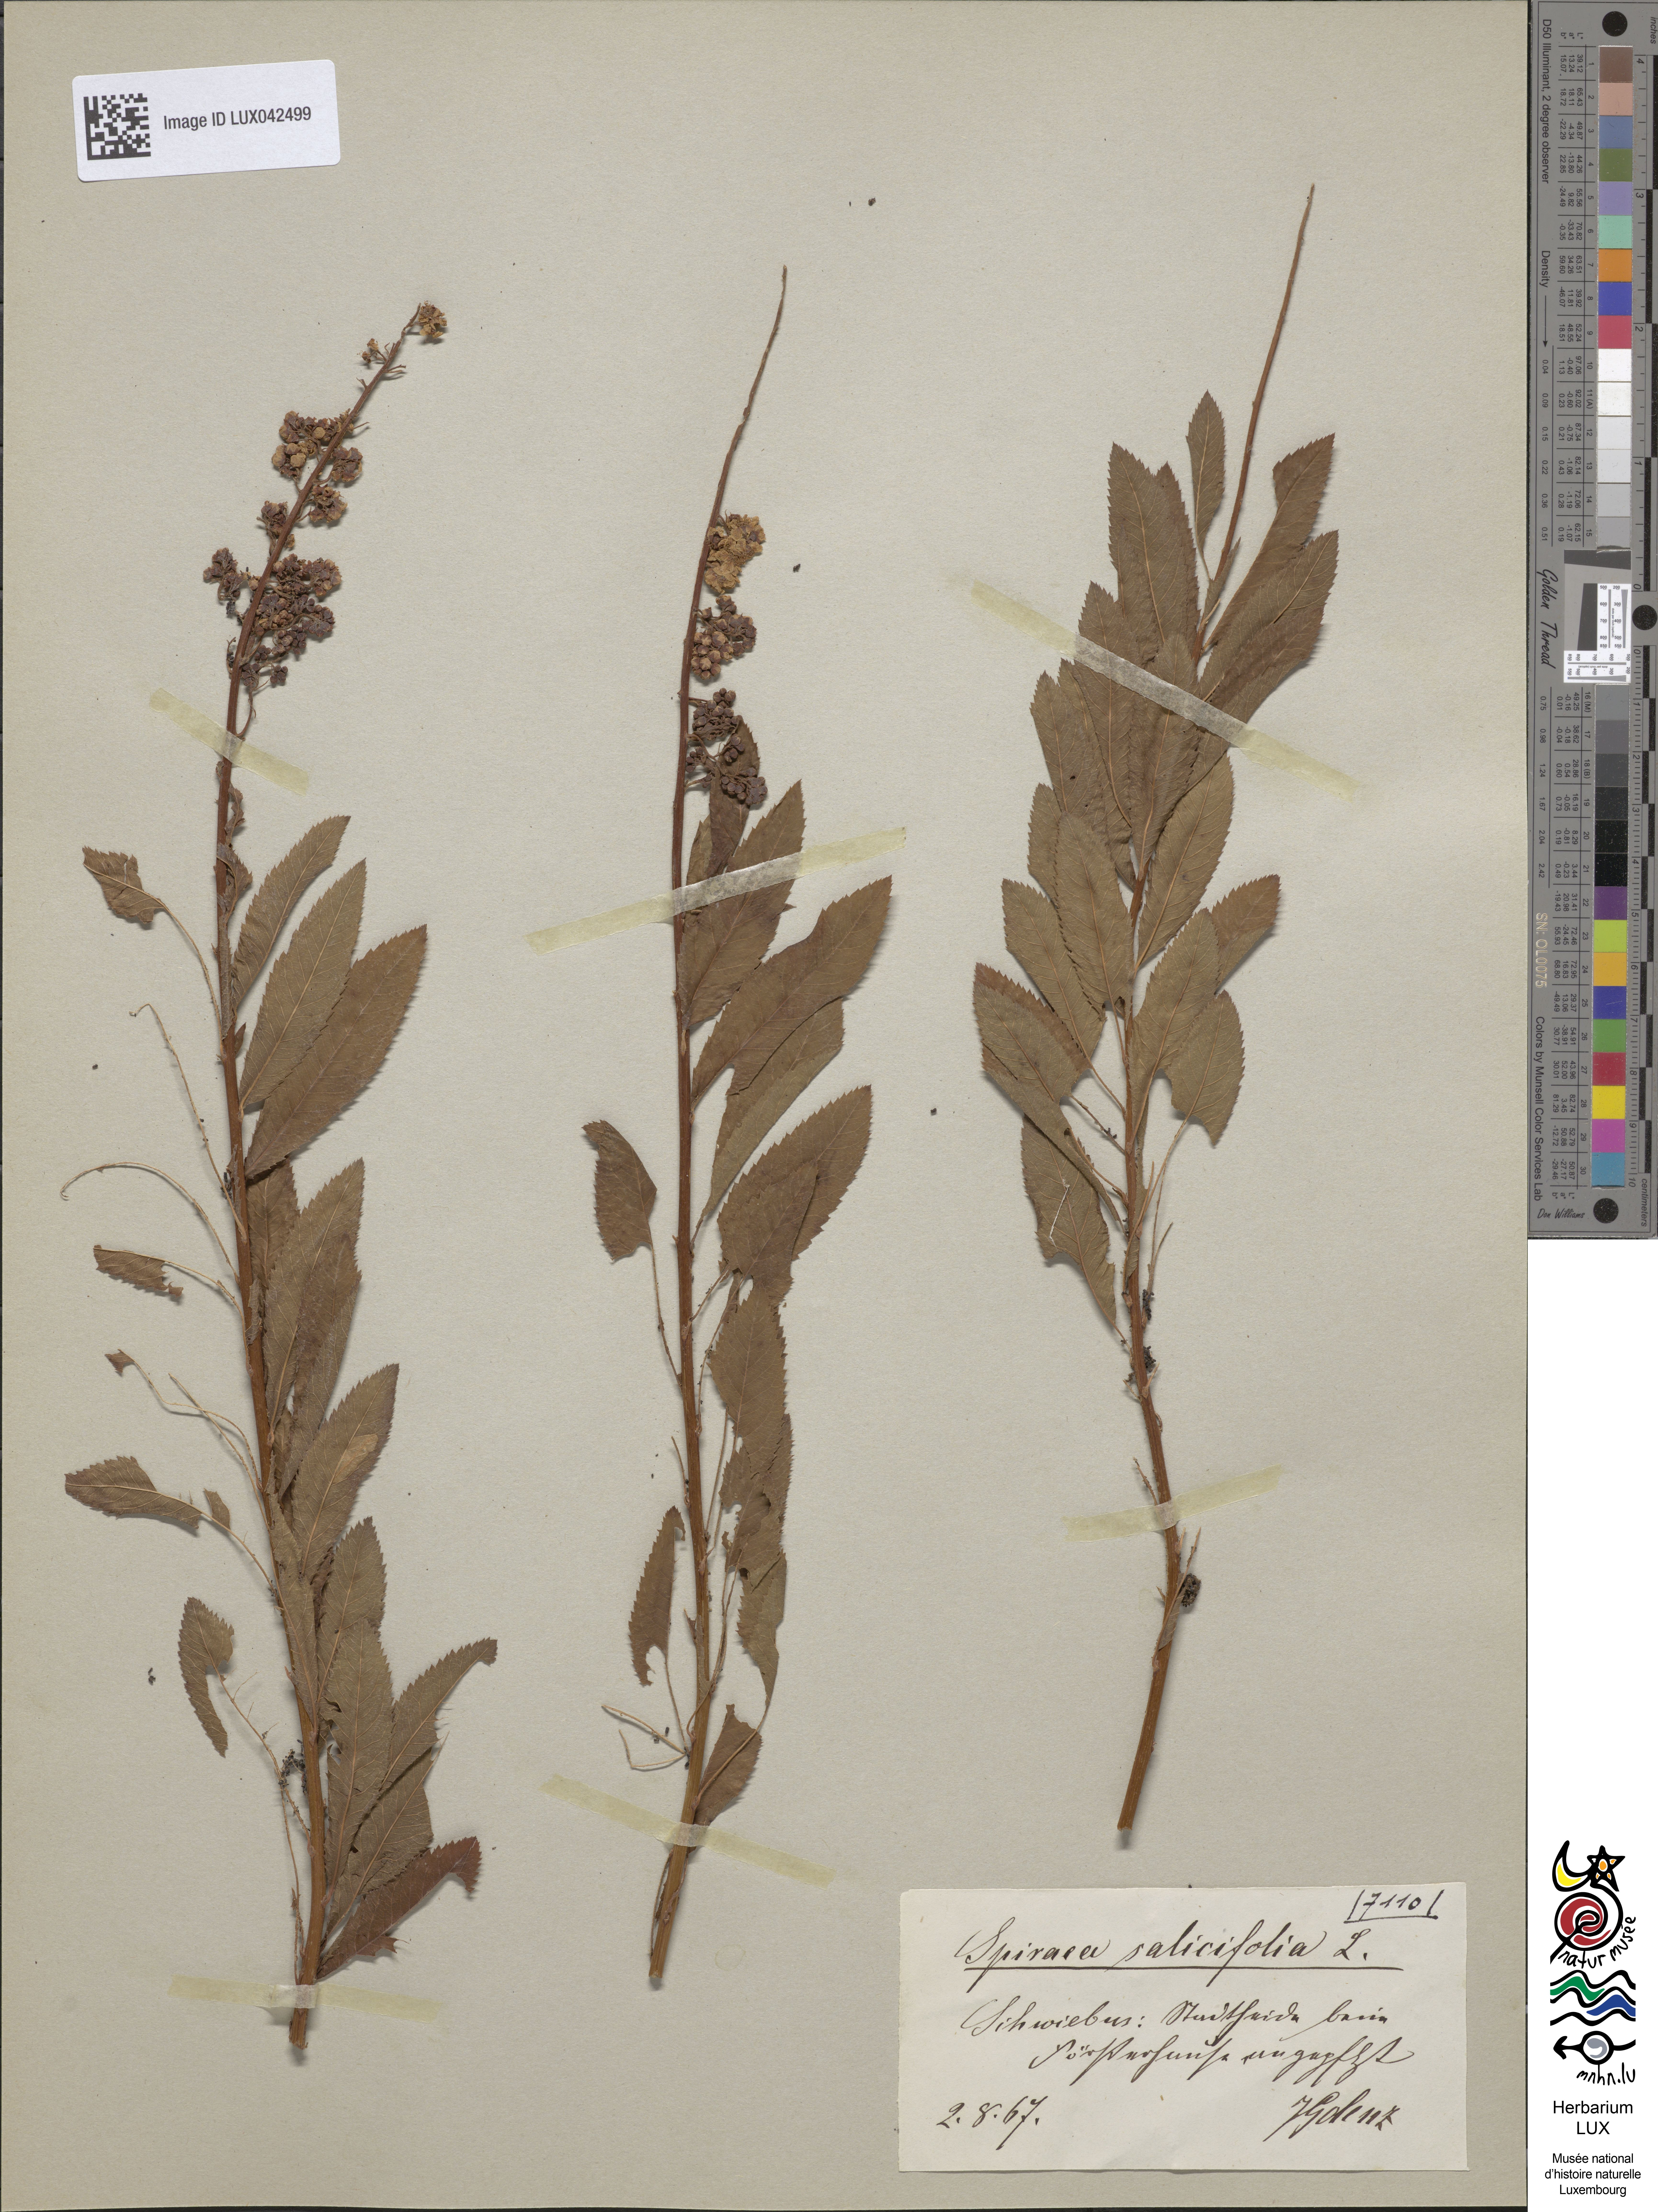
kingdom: Plantae
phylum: Tracheophyta
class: Magnoliopsida
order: Rosales
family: Rosaceae
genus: Spiraea
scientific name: Spiraea salicifolia
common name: Bridewort
